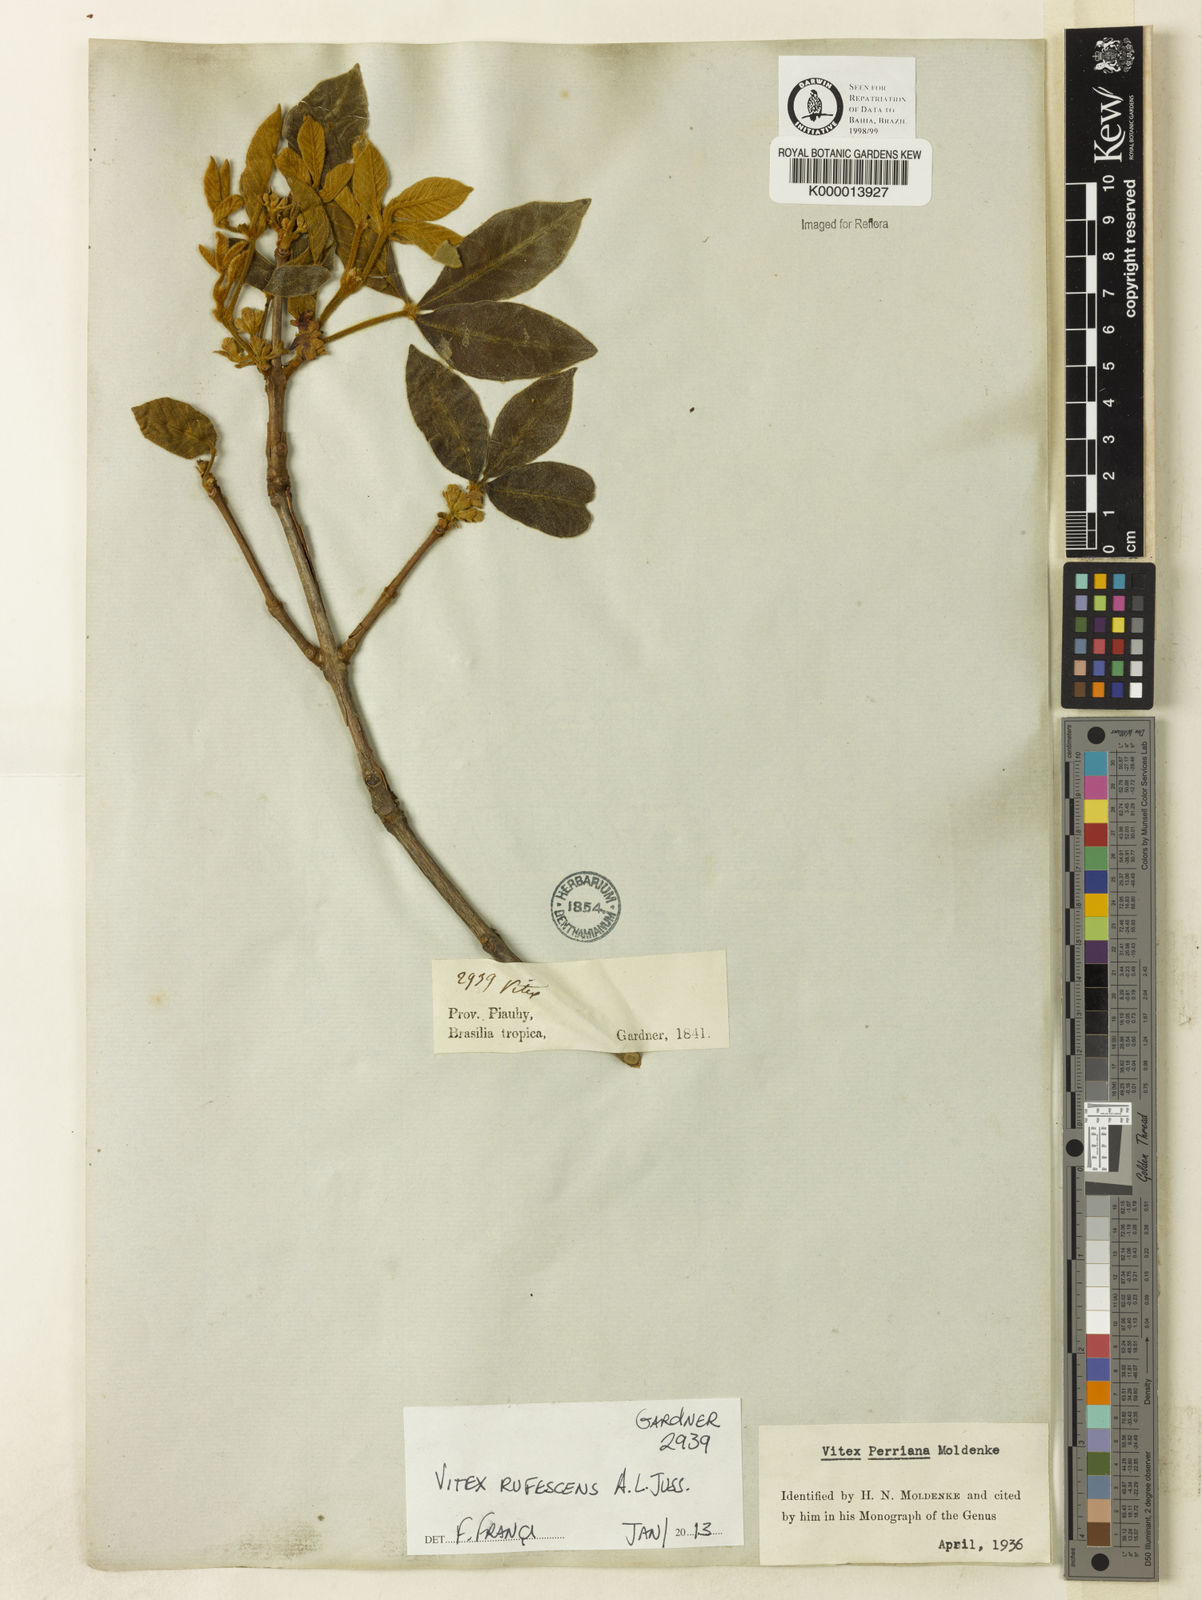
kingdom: Plantae
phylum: Tracheophyta
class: Magnoliopsida
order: Lamiales
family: Lamiaceae
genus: Vitex
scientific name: Vitex rufescens
